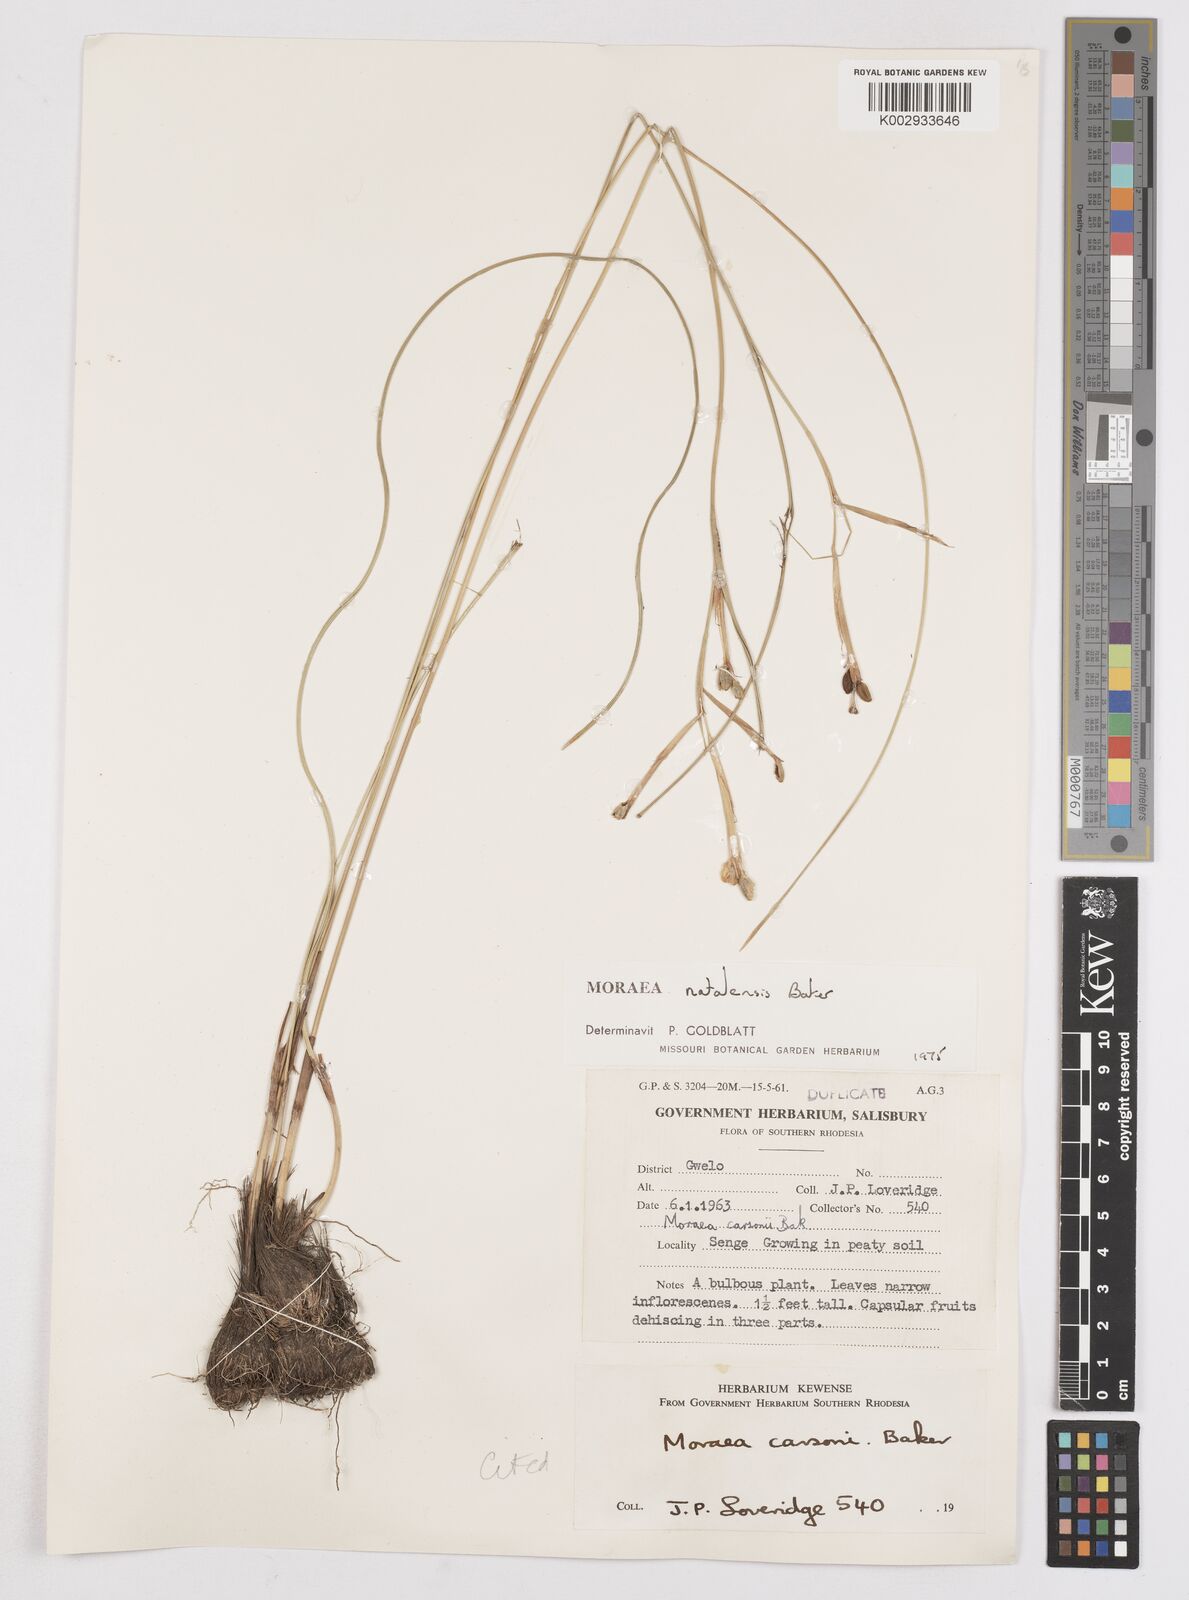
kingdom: Plantae
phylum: Tracheophyta
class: Liliopsida
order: Asparagales
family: Iridaceae
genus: Moraea
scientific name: Moraea natalensis
